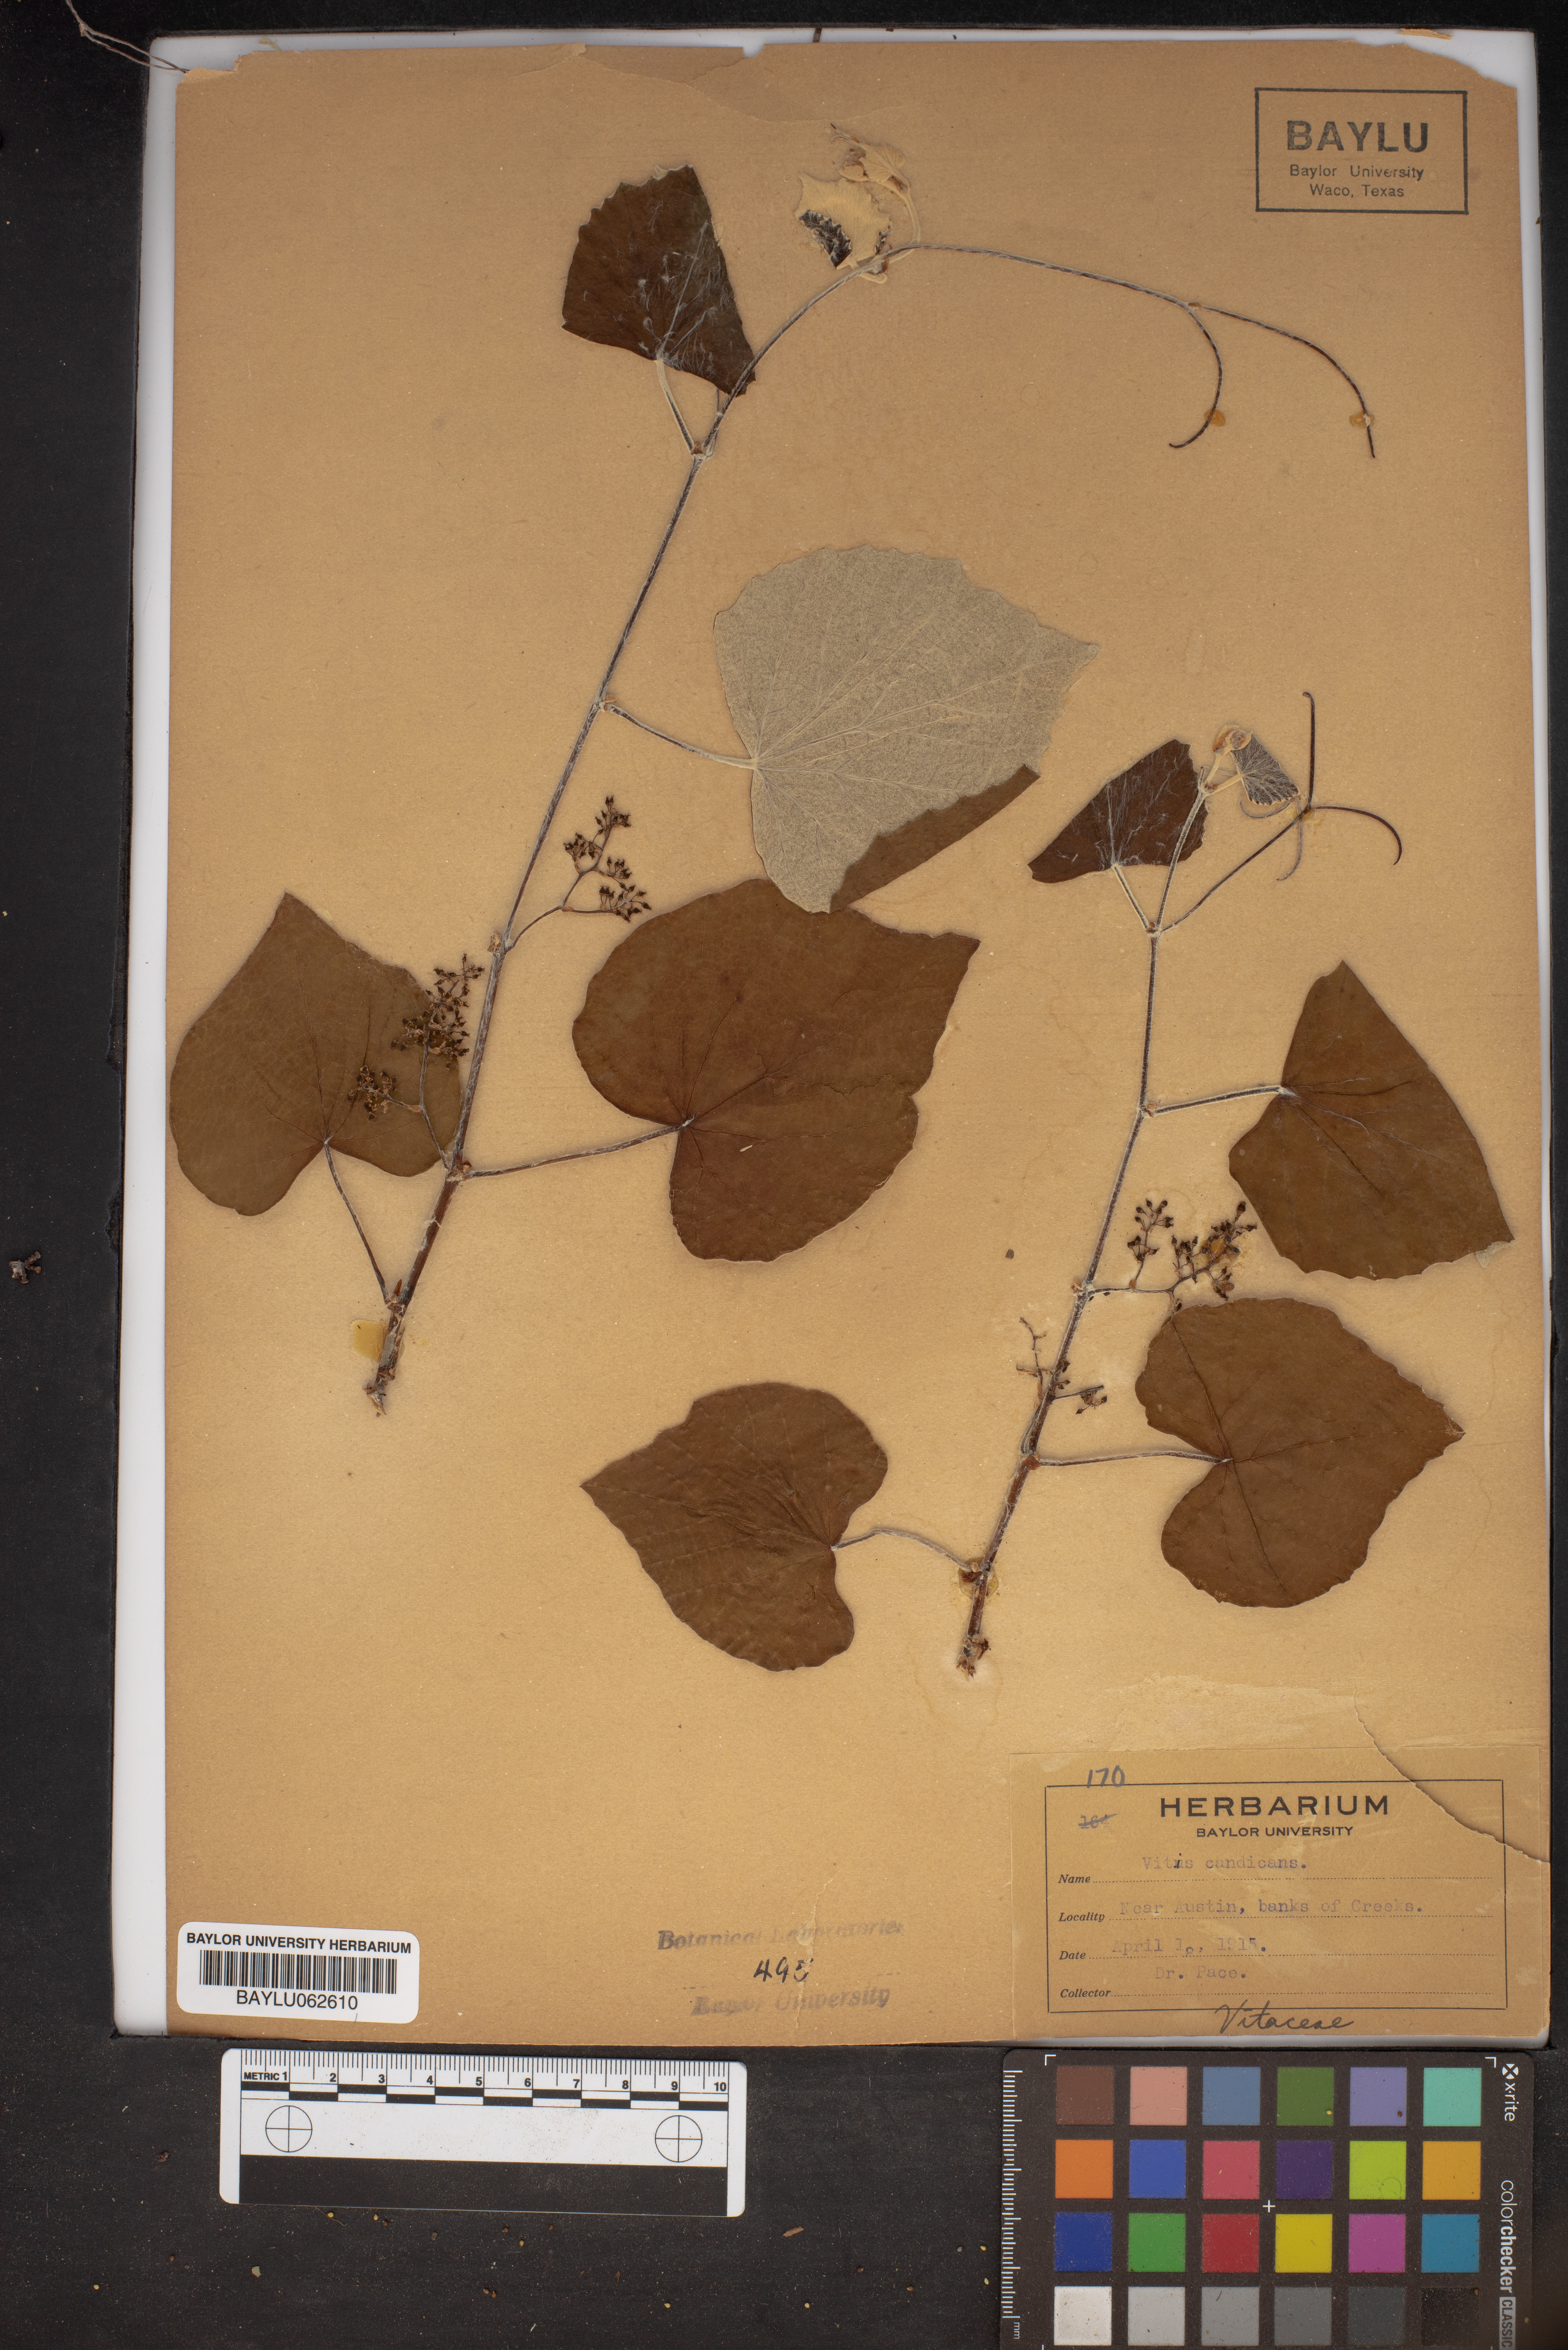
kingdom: Plantae
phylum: Tracheophyta
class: Magnoliopsida
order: Vitales
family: Vitaceae
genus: Vitis
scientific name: Vitis mustangensis
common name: Mustang grape
